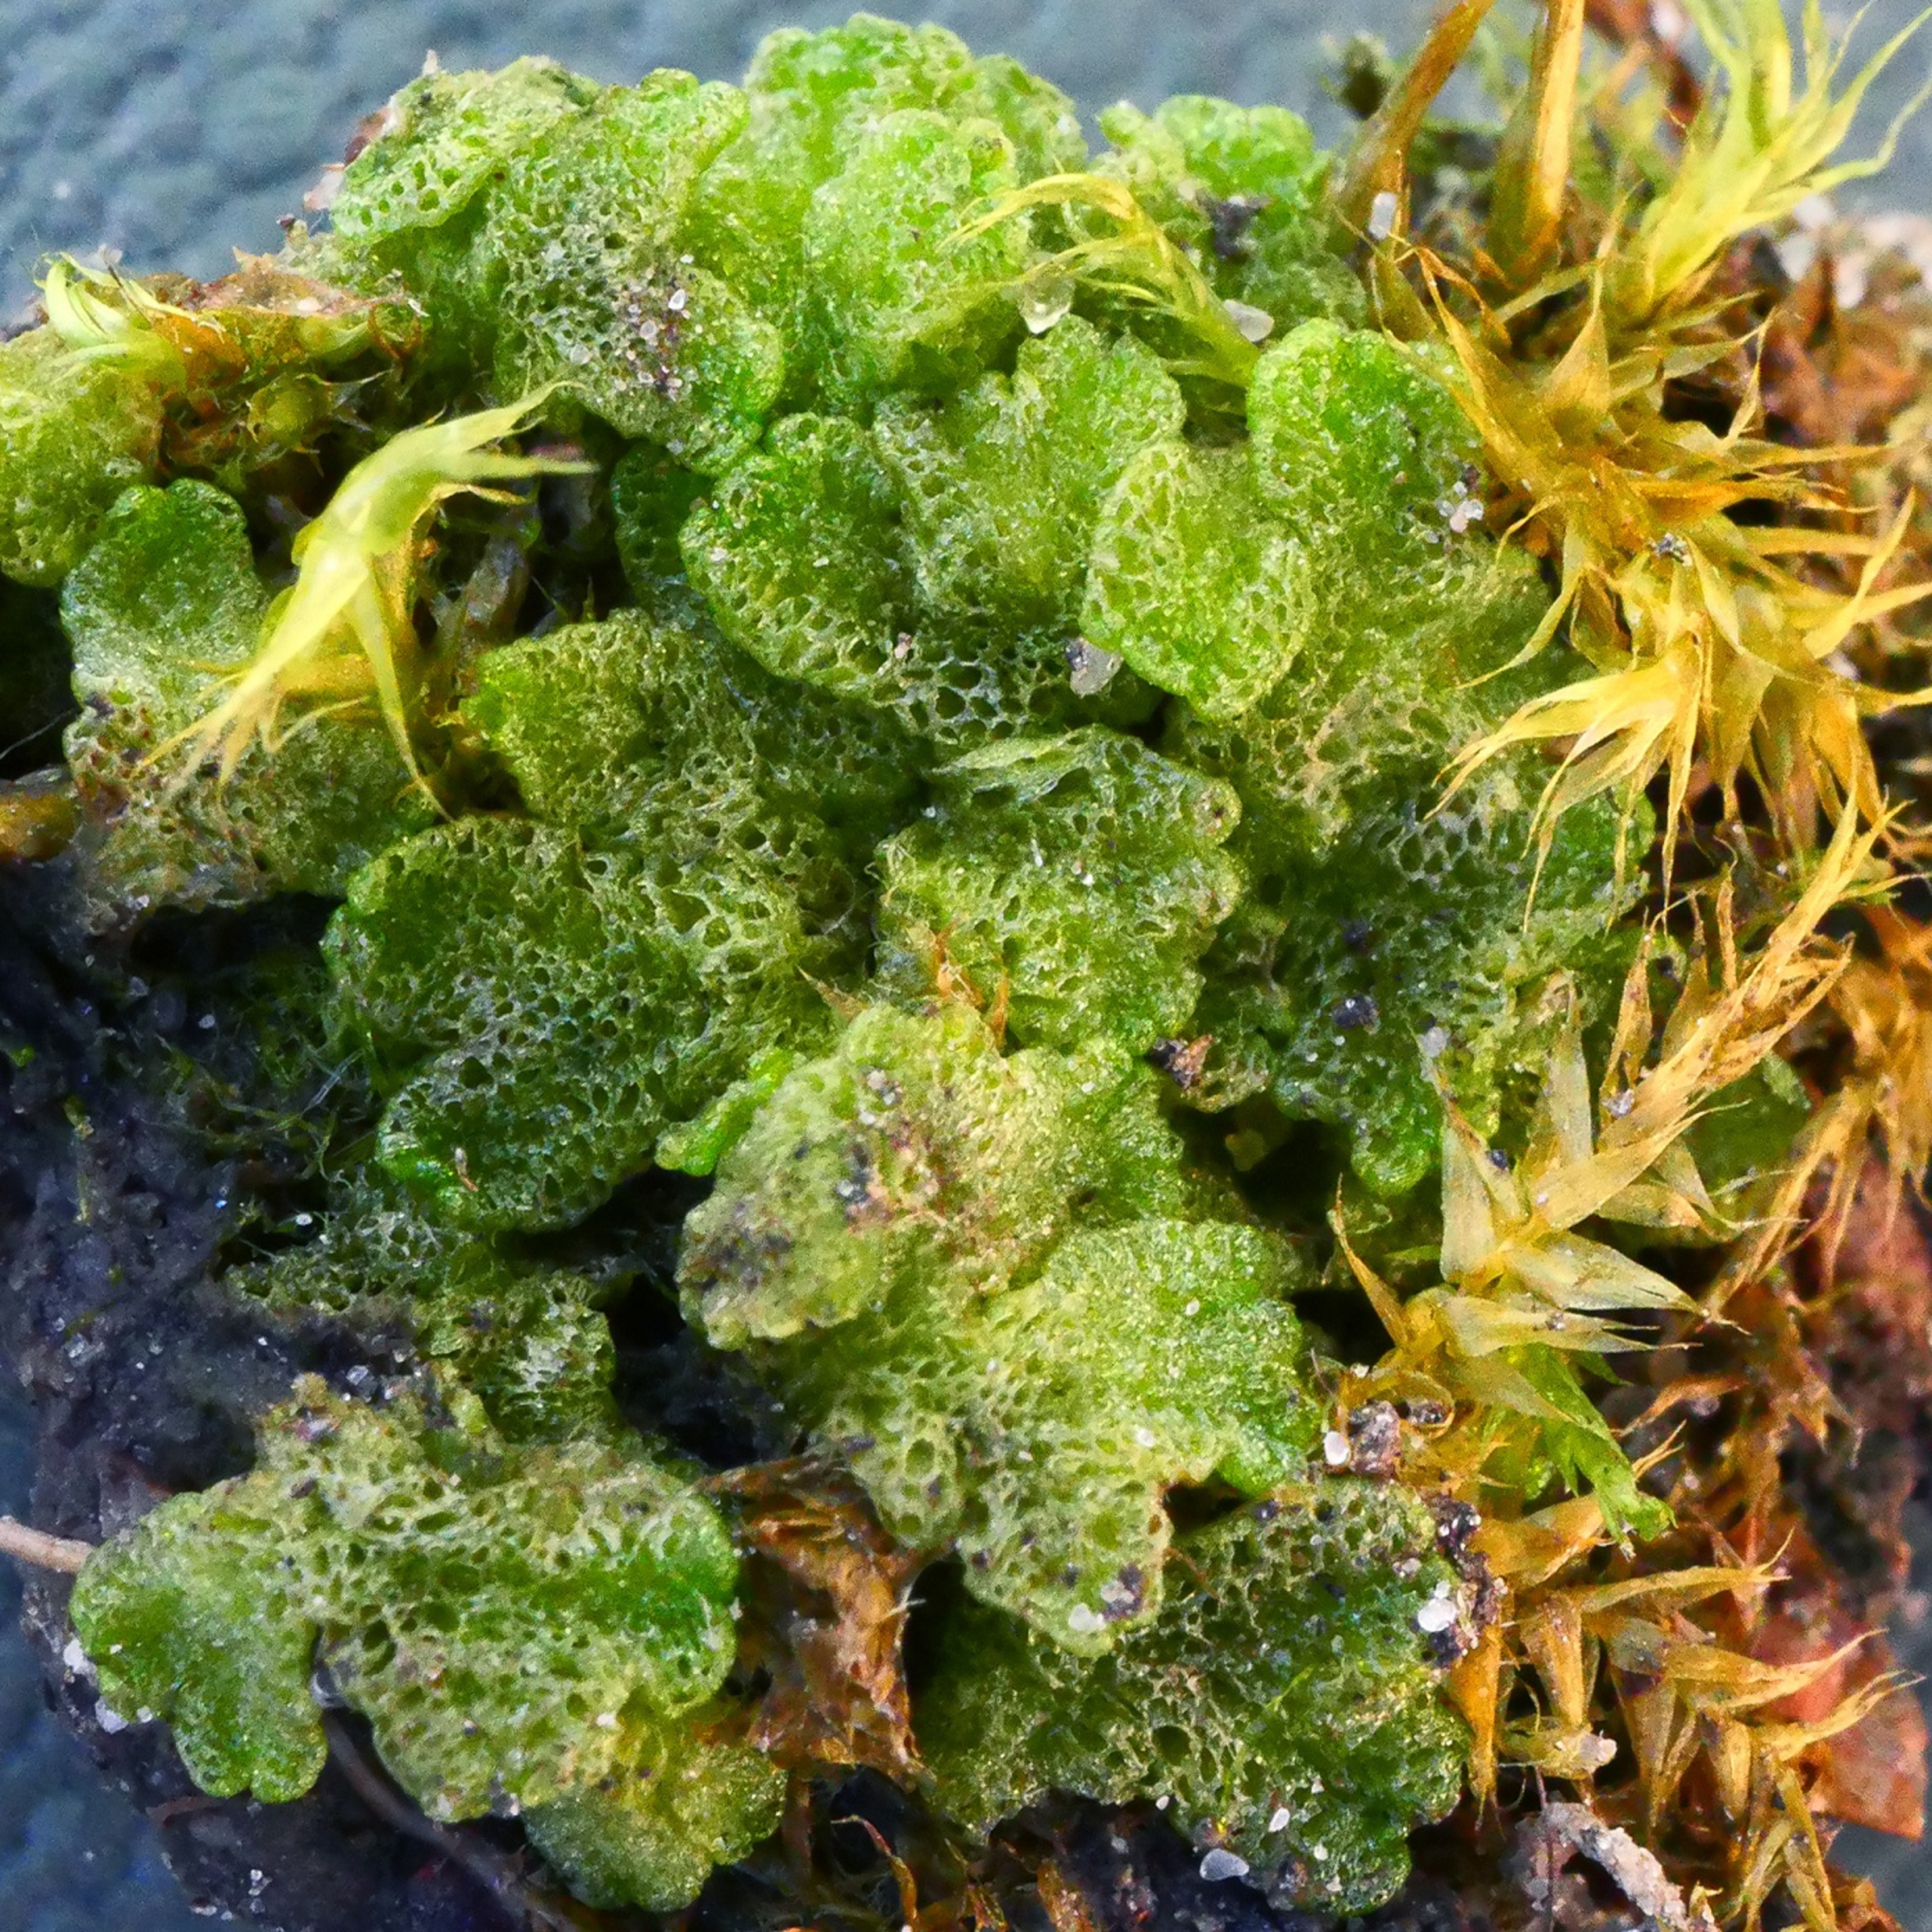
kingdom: Plantae
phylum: Marchantiophyta
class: Marchantiopsida
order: Marchantiales
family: Ricciaceae
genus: Riccia
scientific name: Riccia cavernosa
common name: Grubet stjerneløv
